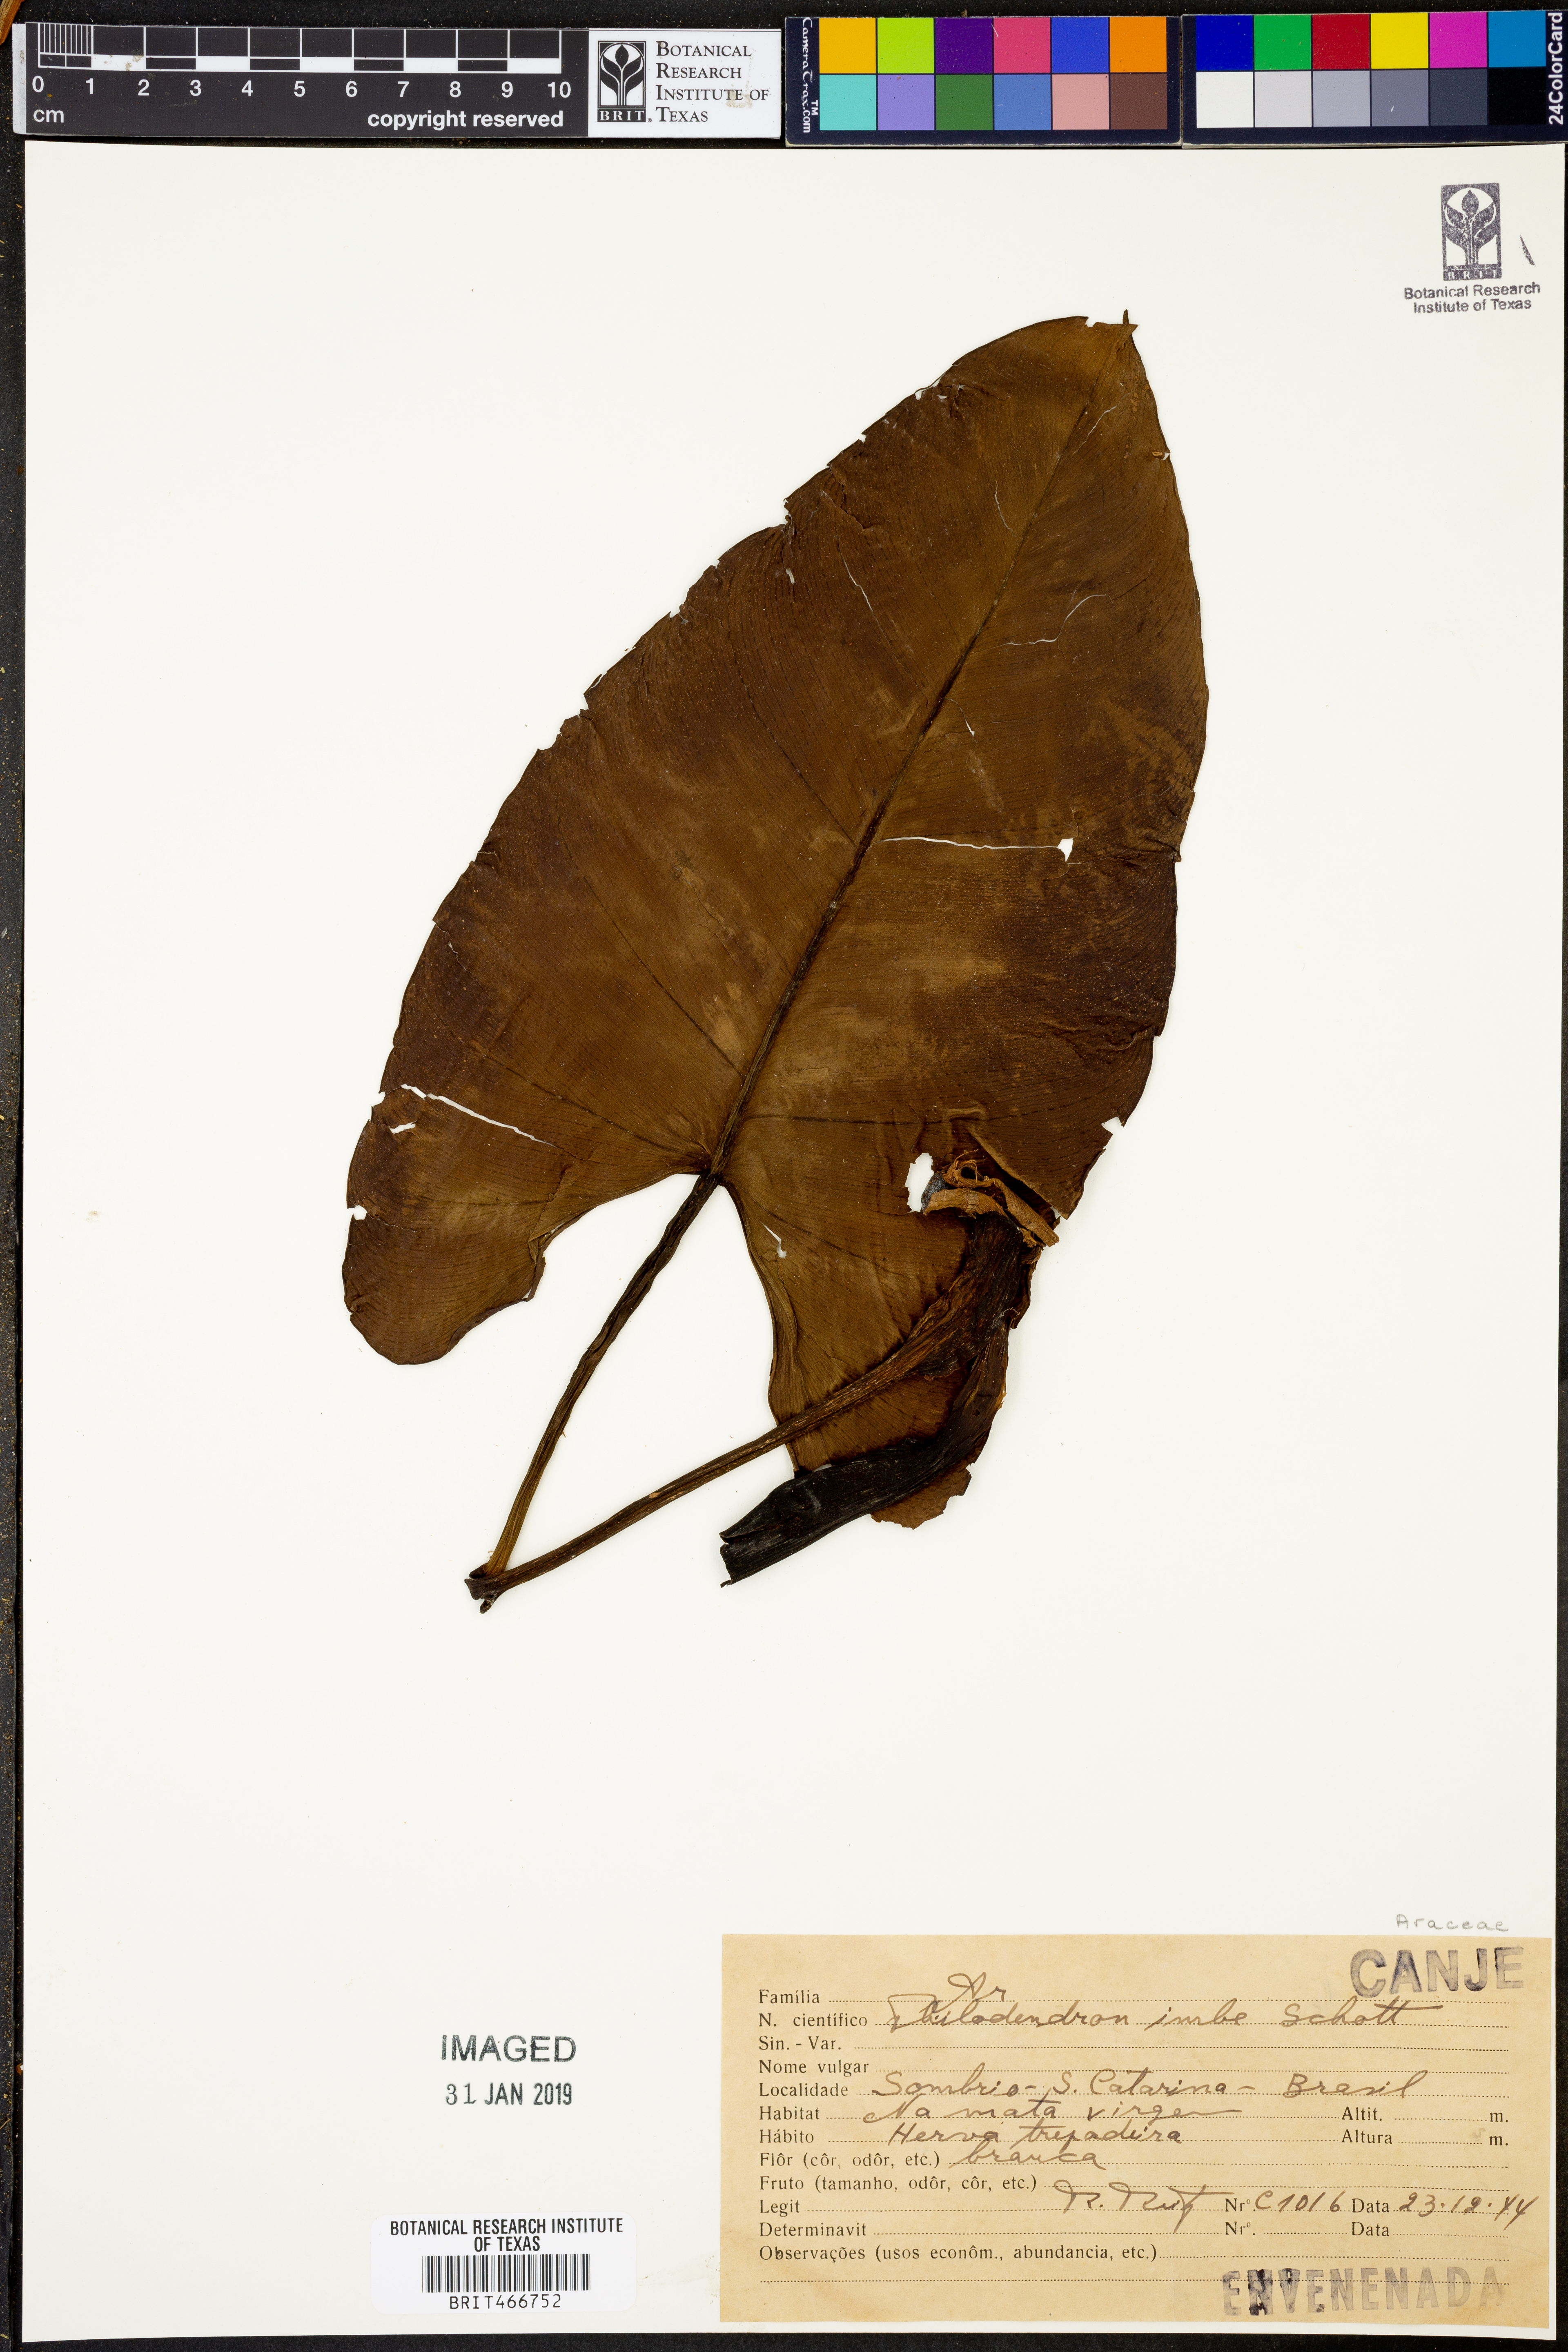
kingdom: Plantae
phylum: Tracheophyta
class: Liliopsida
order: Alismatales
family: Araceae
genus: Philodendron
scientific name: Philodendron imbe
